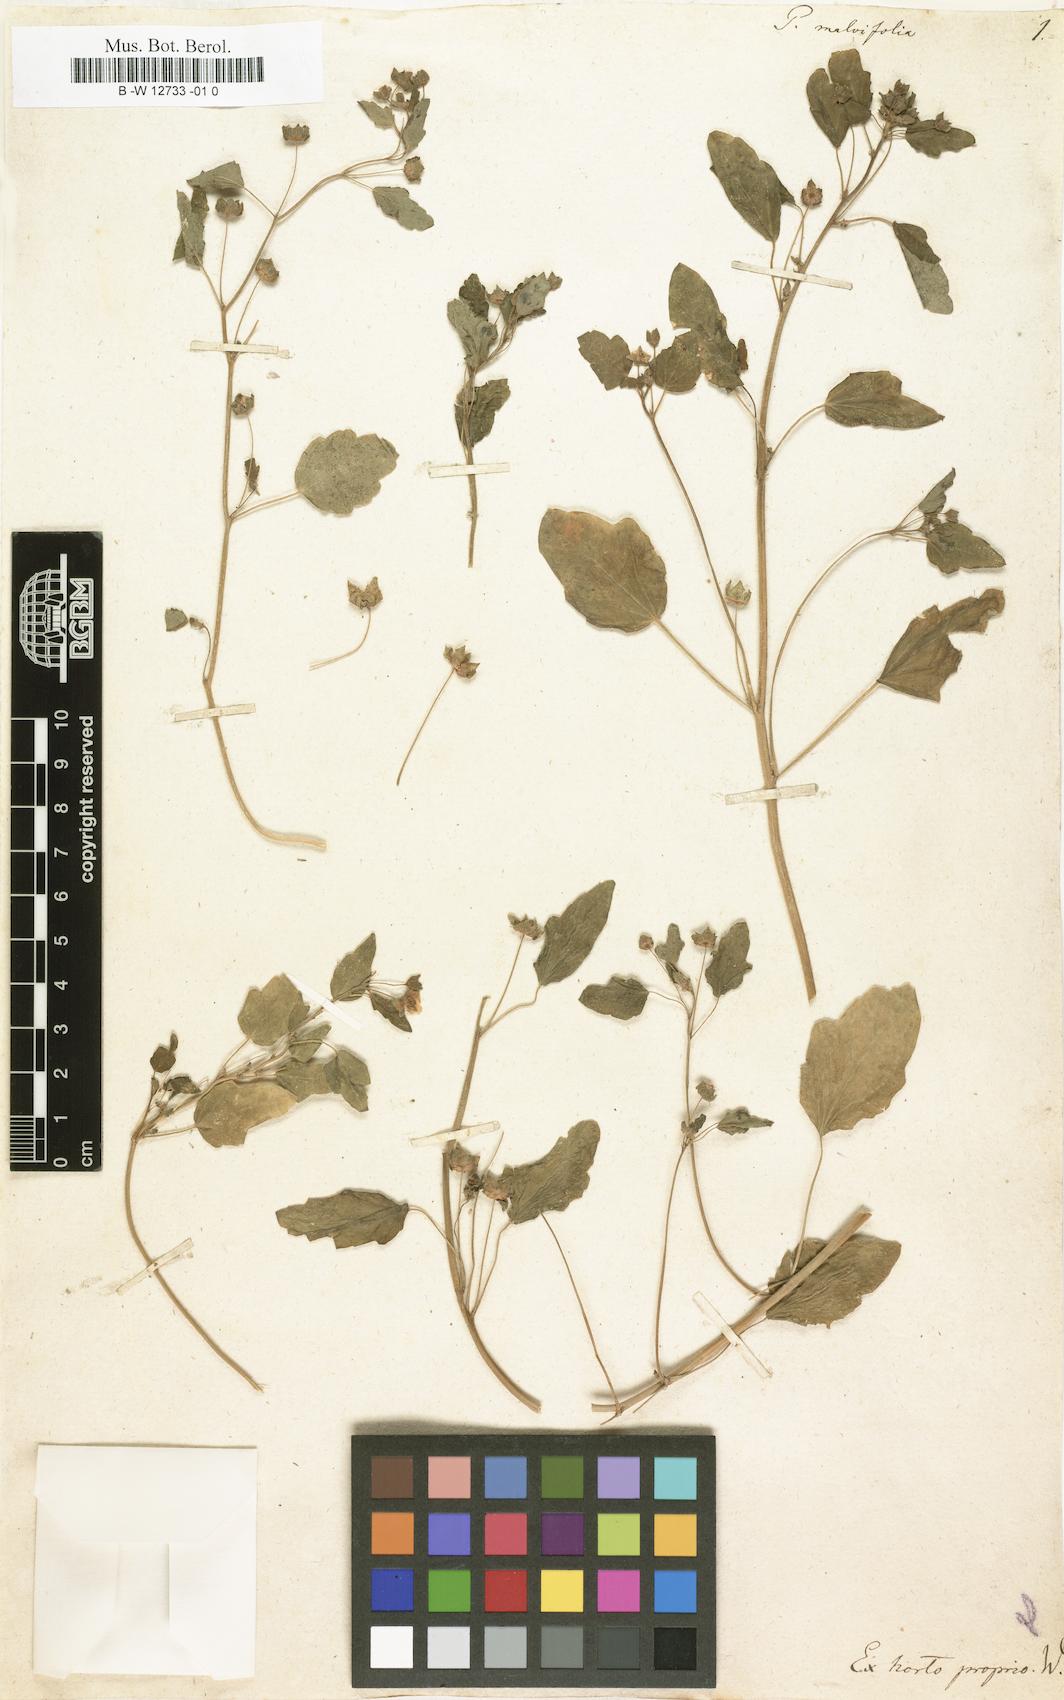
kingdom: Plantae
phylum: Tracheophyta
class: Magnoliopsida
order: Malvales
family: Malvaceae
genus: Palaua
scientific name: Palaua malvifolia
